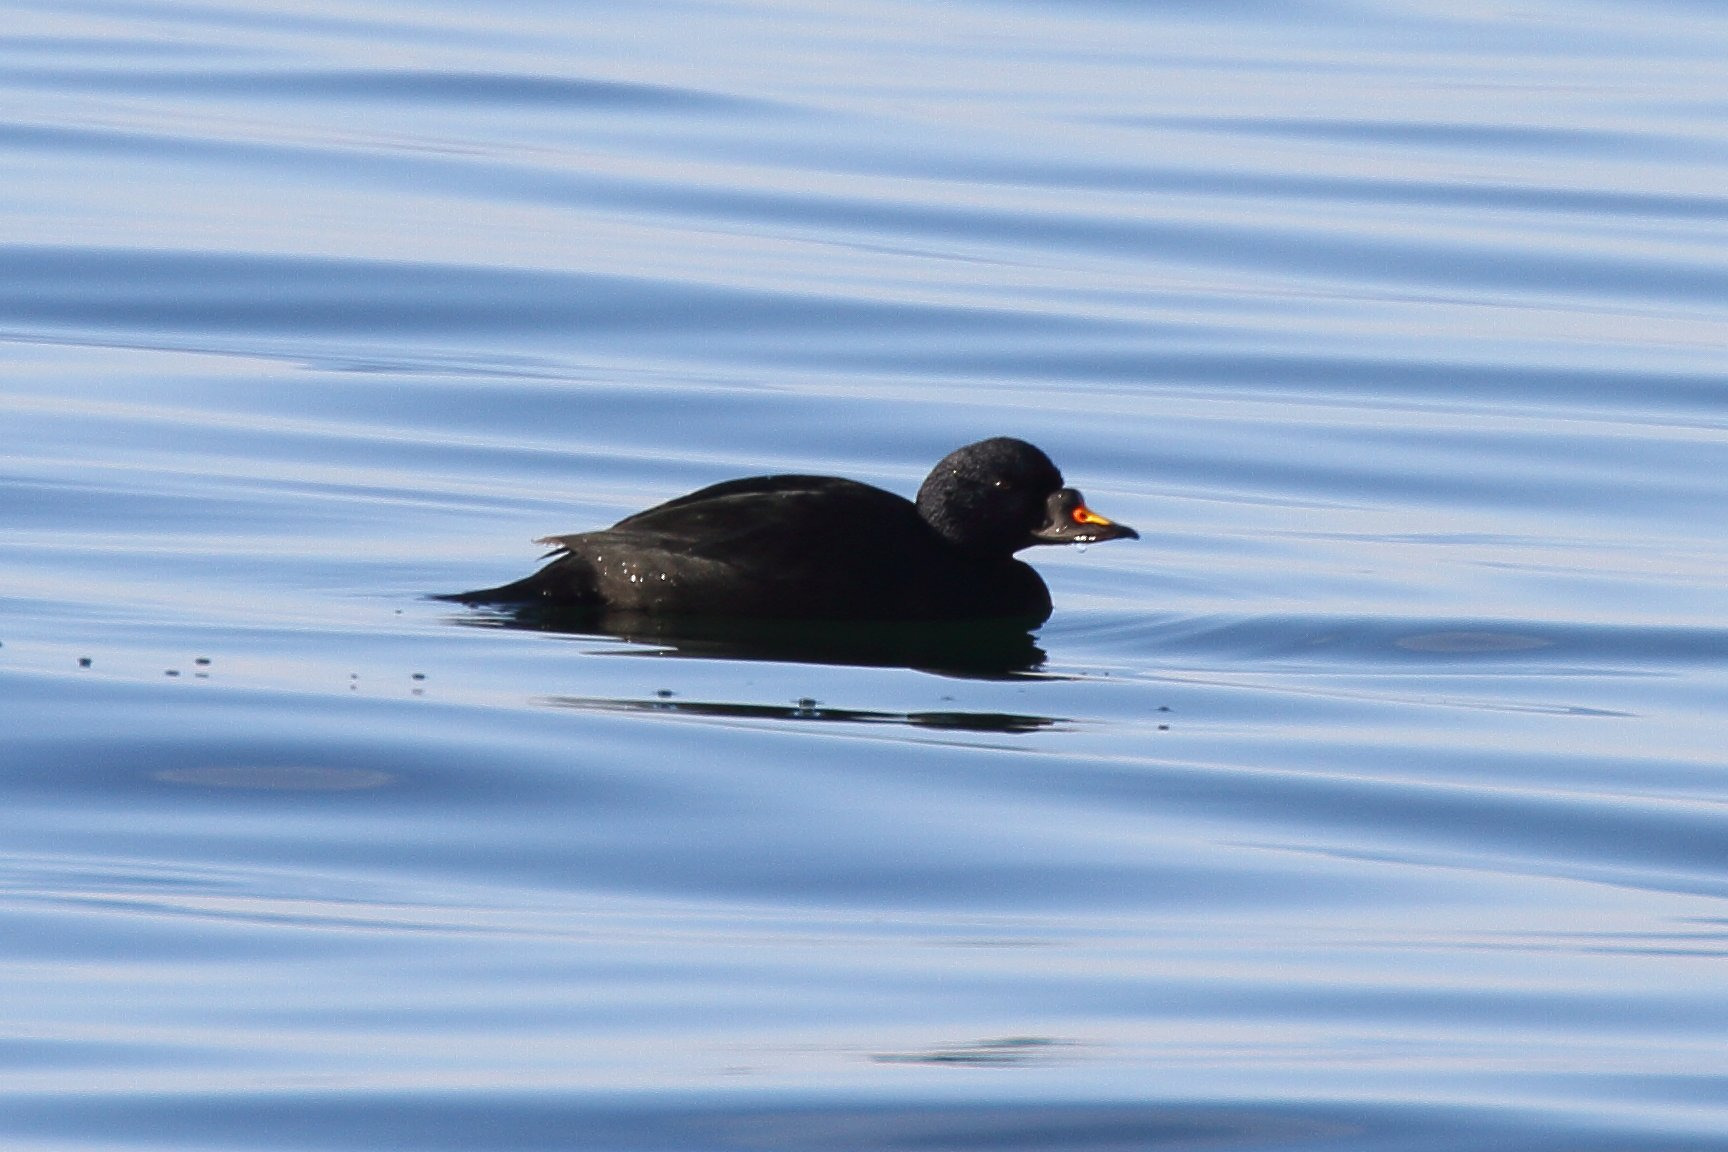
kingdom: Animalia
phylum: Chordata
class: Aves
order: Anseriformes
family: Anatidae
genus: Melanitta
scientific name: Melanitta nigra
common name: Sortand
